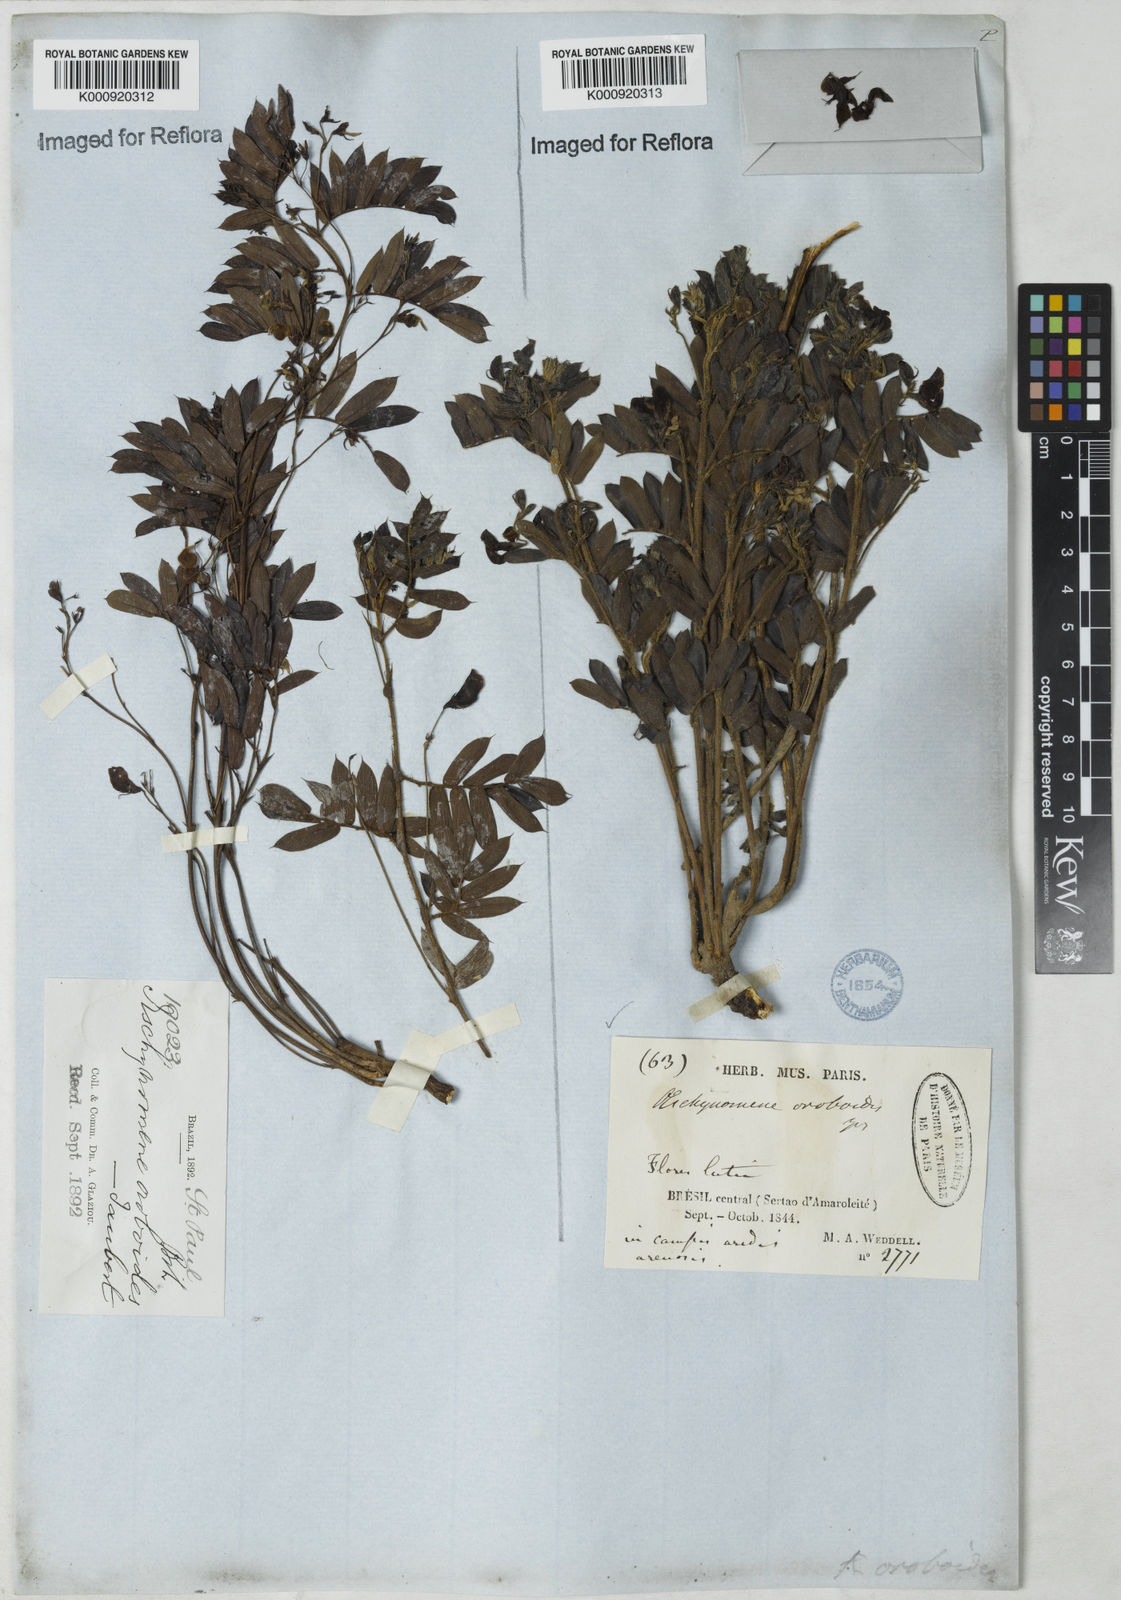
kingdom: Plantae
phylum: Tracheophyta
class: Magnoliopsida
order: Fabales
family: Fabaceae
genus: Ctenodon
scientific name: Ctenodon oroboides
